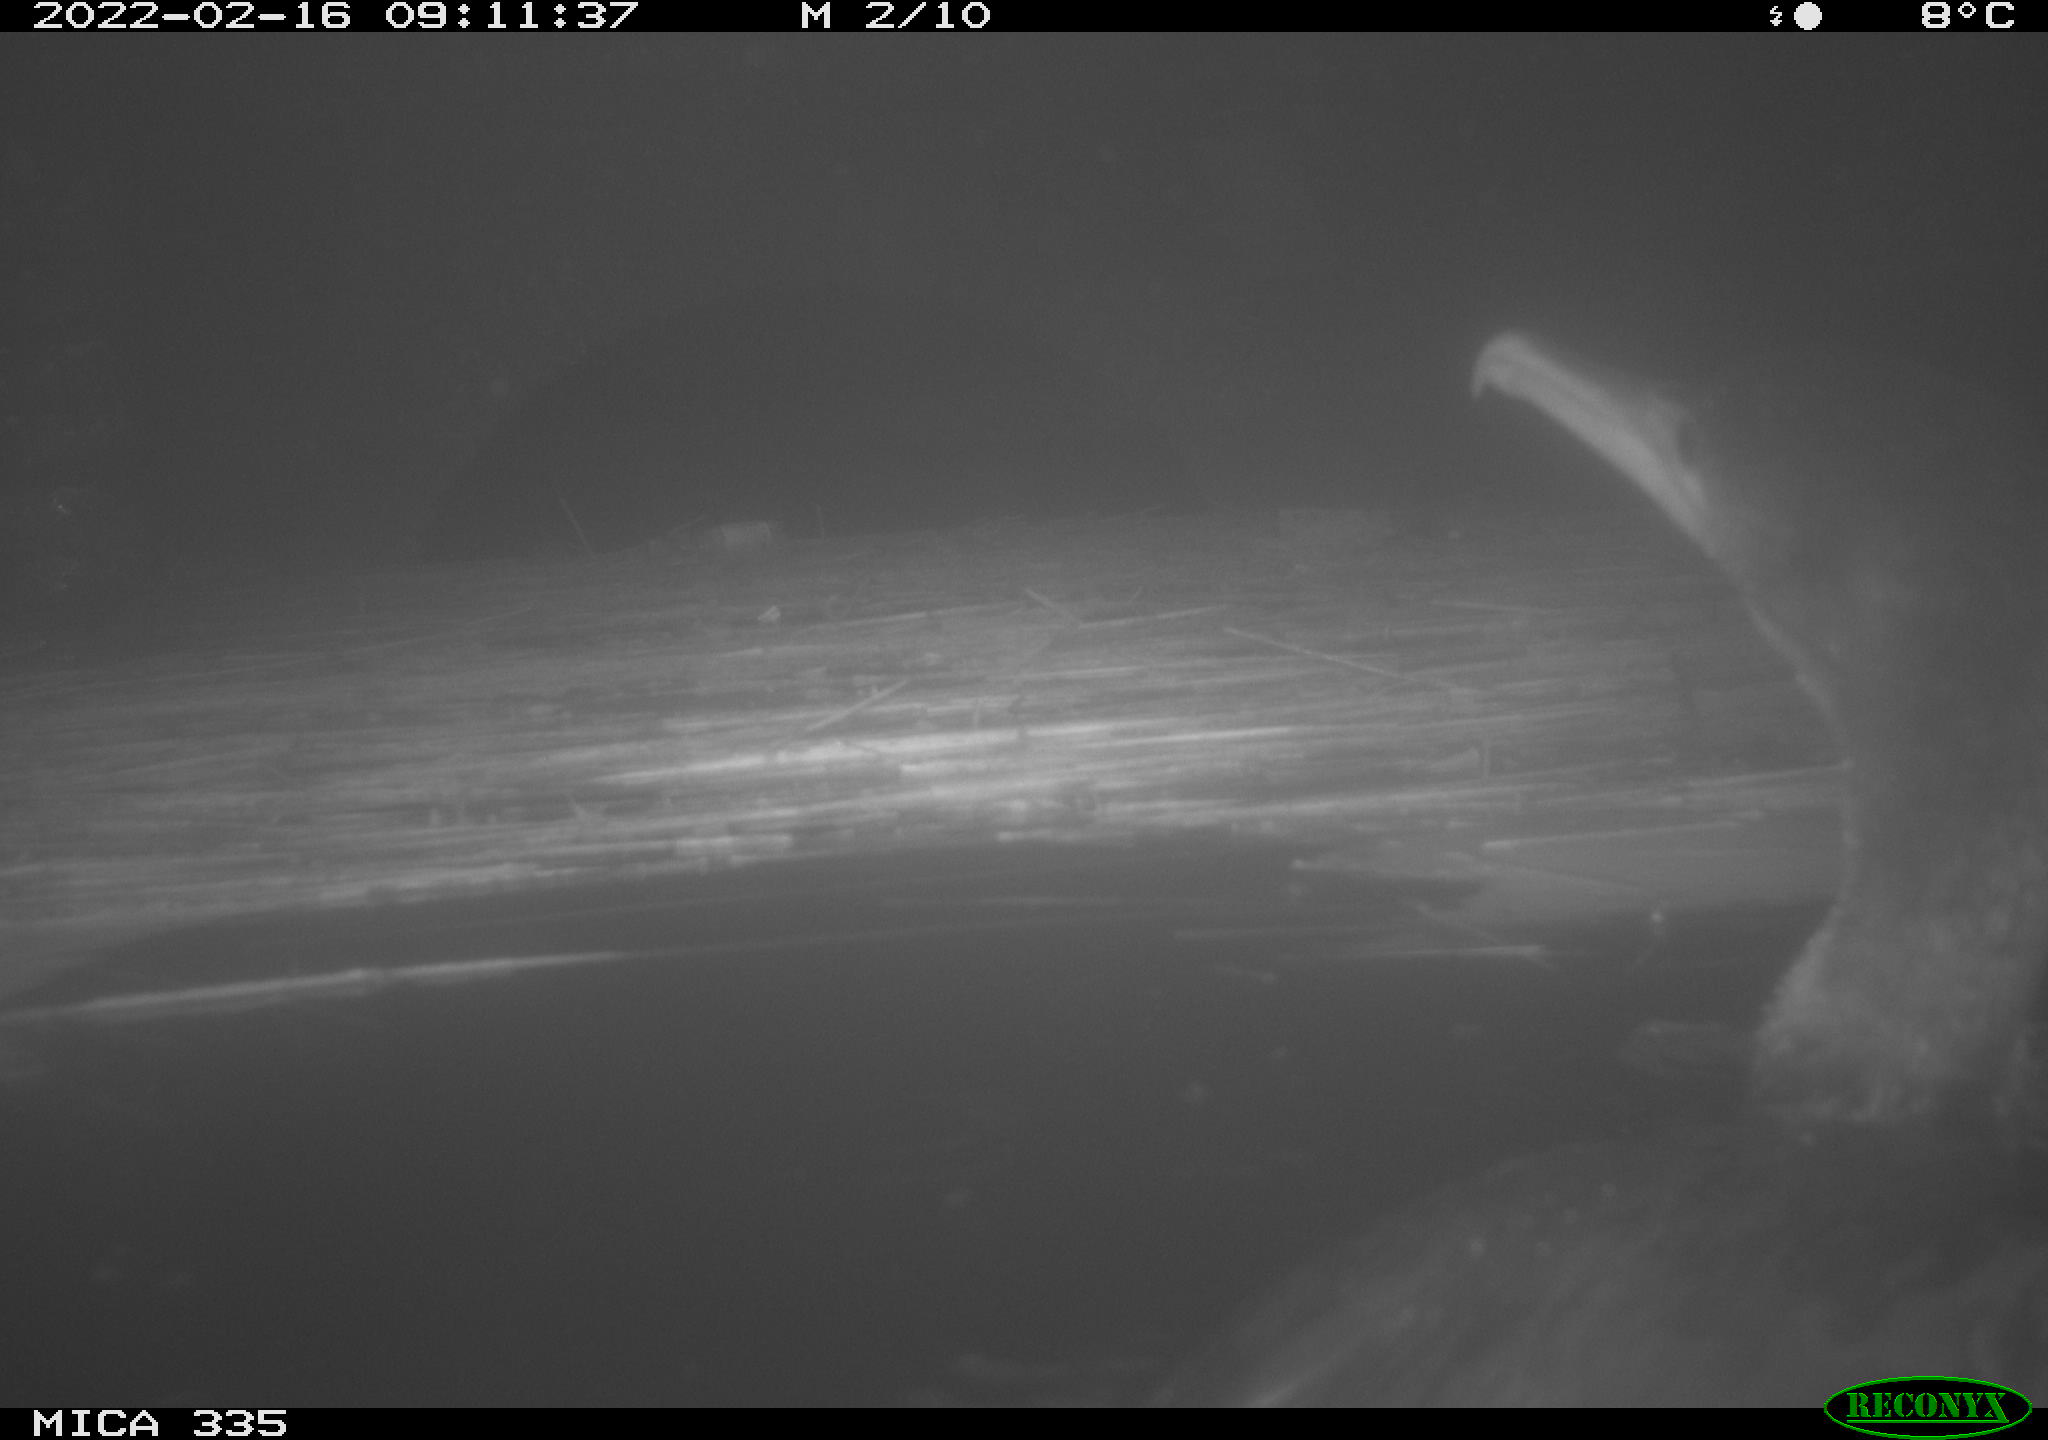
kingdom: Animalia
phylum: Chordata
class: Aves
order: Suliformes
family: Phalacrocoracidae
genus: Phalacrocorax
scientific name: Phalacrocorax carbo
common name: Great cormorant
